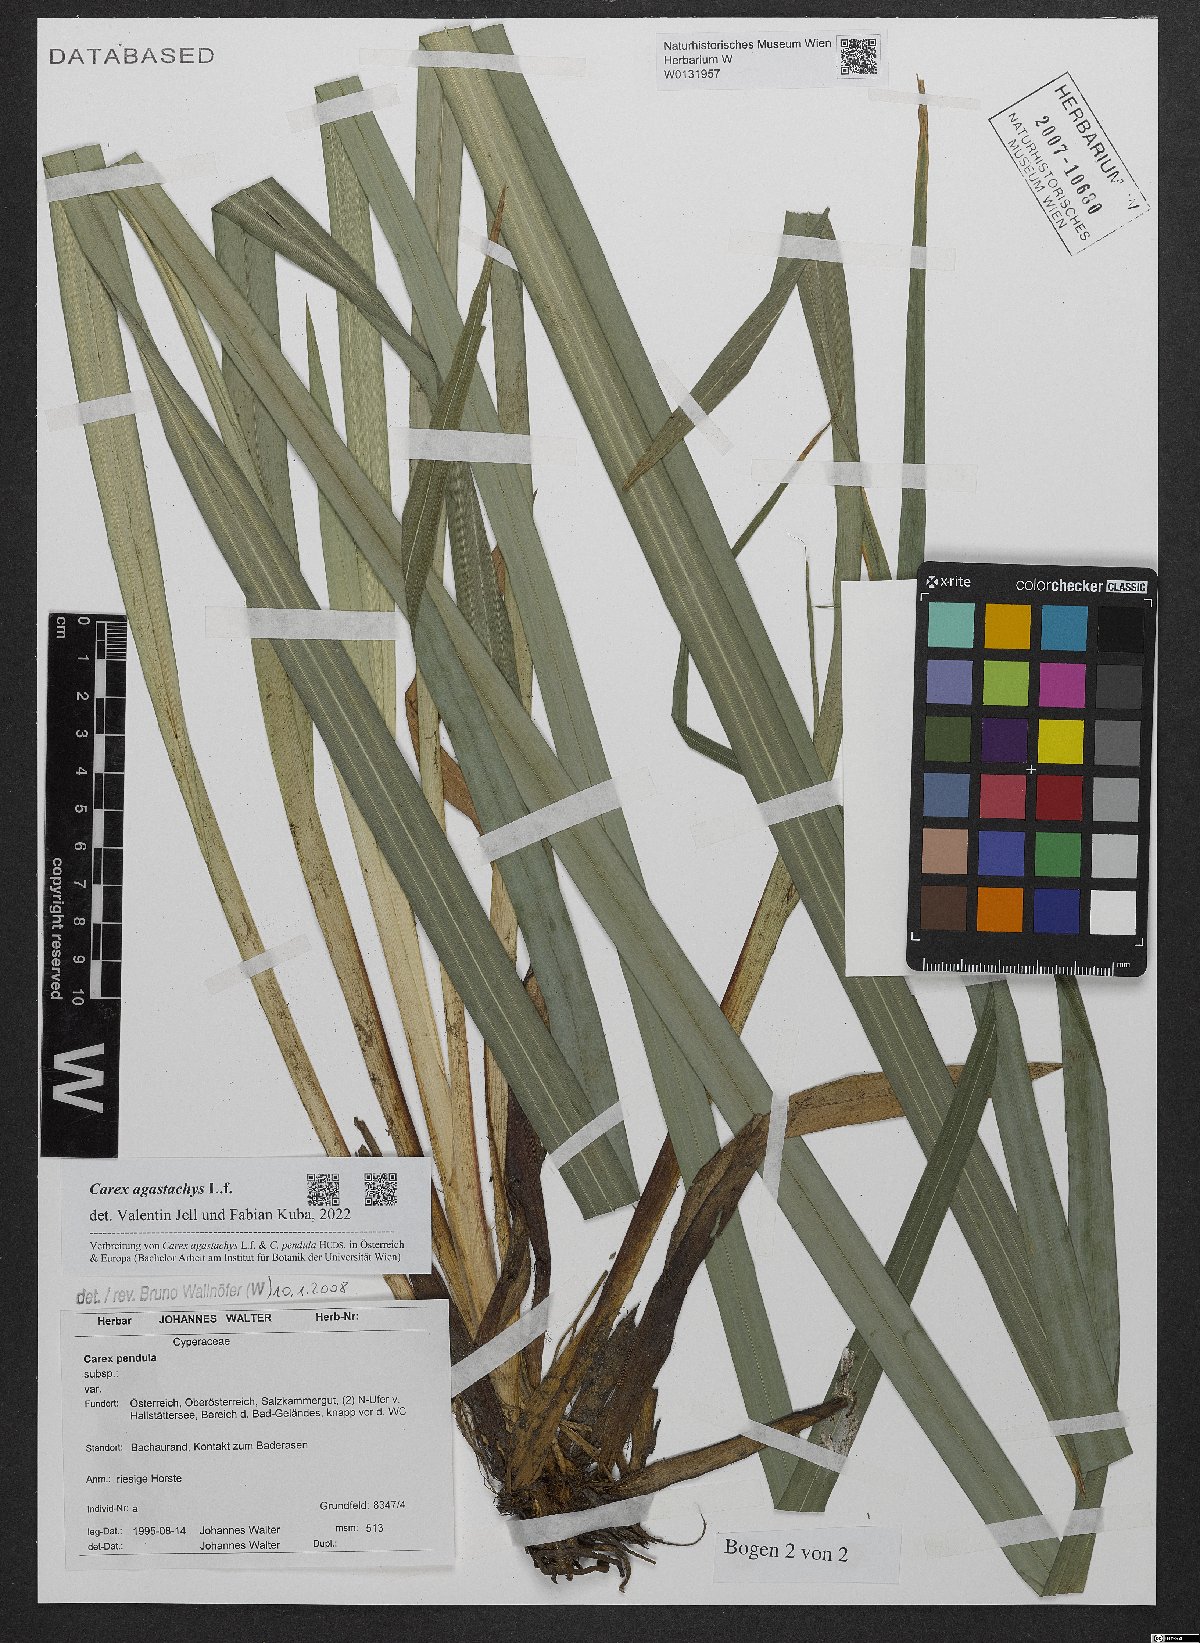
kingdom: Plantae
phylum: Tracheophyta
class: Liliopsida
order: Poales
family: Cyperaceae
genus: Carex
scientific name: Carex agastachys
